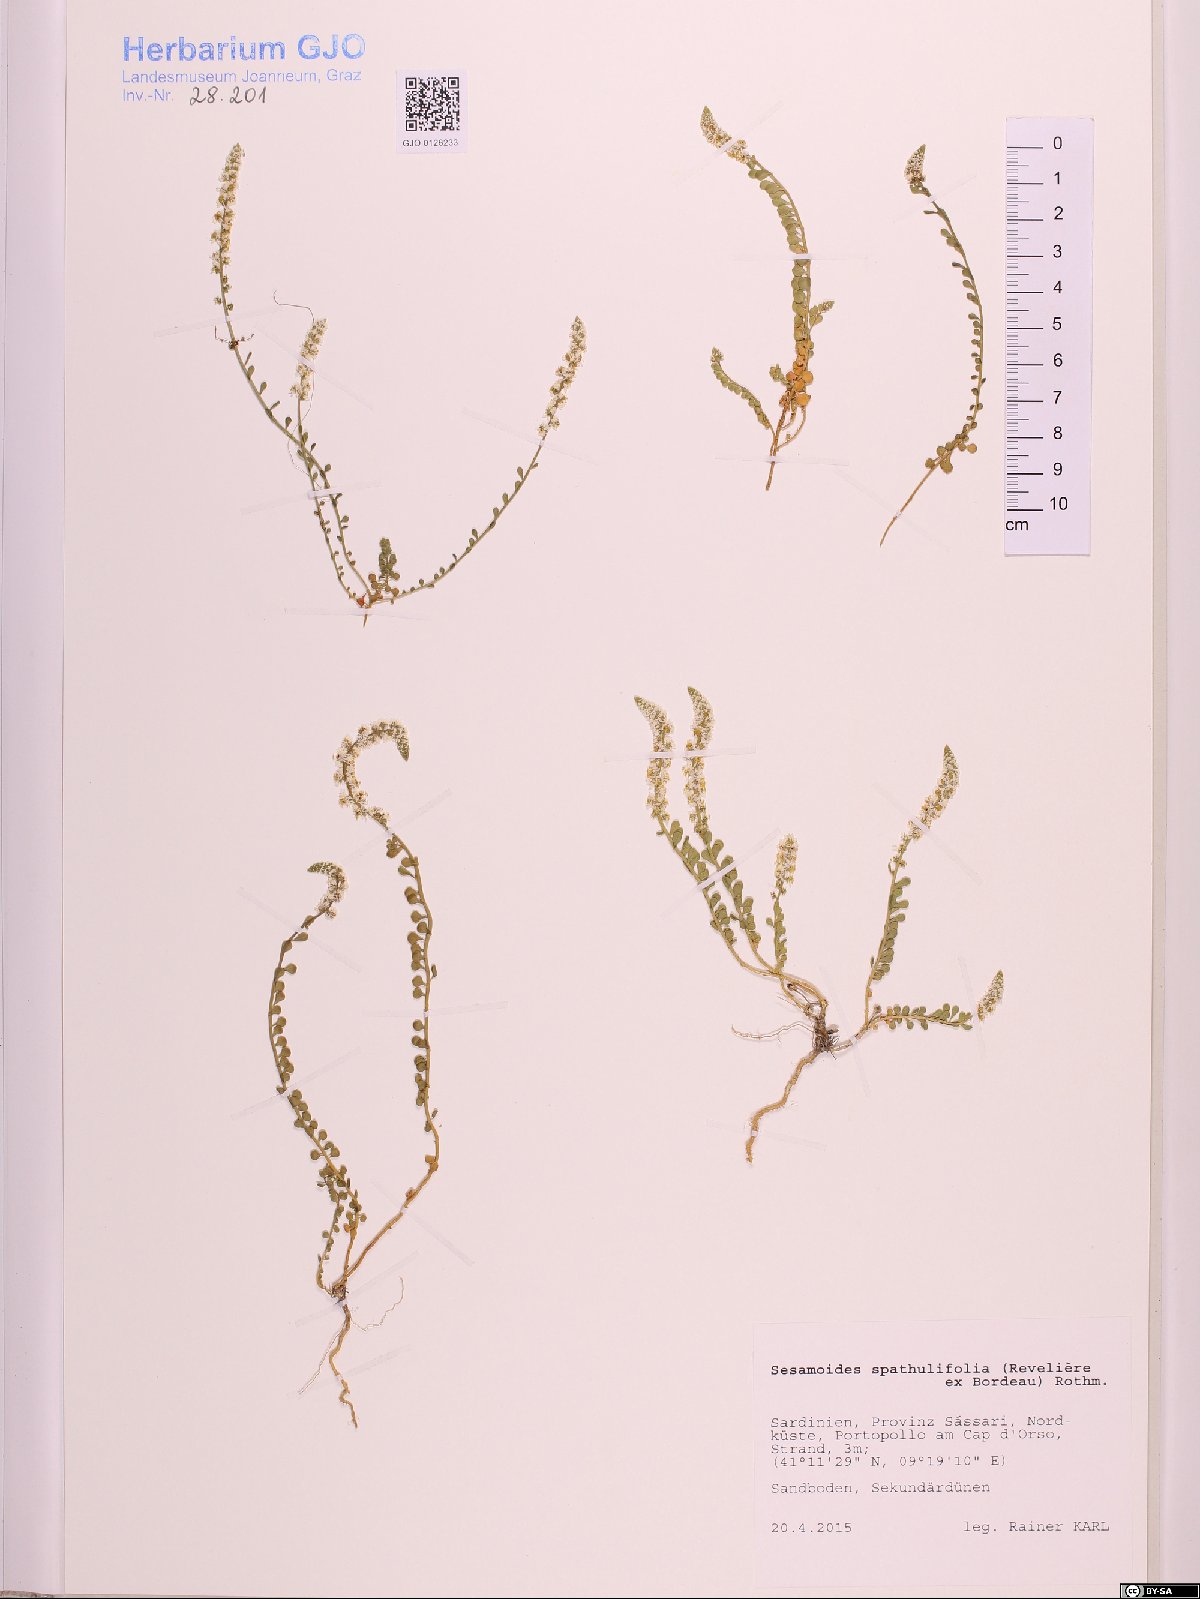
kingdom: Plantae
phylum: Tracheophyta
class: Magnoliopsida
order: Brassicales
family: Resedaceae
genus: Sesamoides
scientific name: Sesamoides spathulifolia
